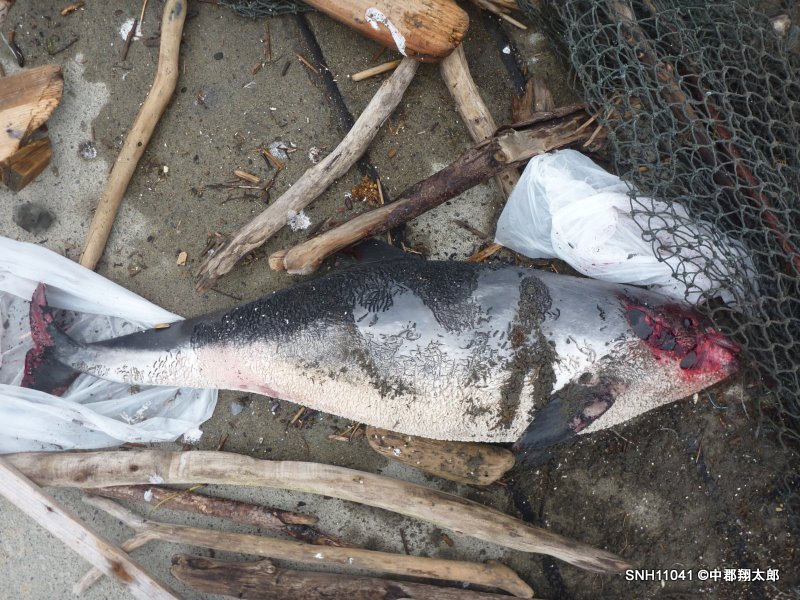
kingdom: Animalia
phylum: Chordata
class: Mammalia
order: Cetacea
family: Phocoenidae
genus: Phocoena
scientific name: Phocoena phocoena
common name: Harbour porpoise
